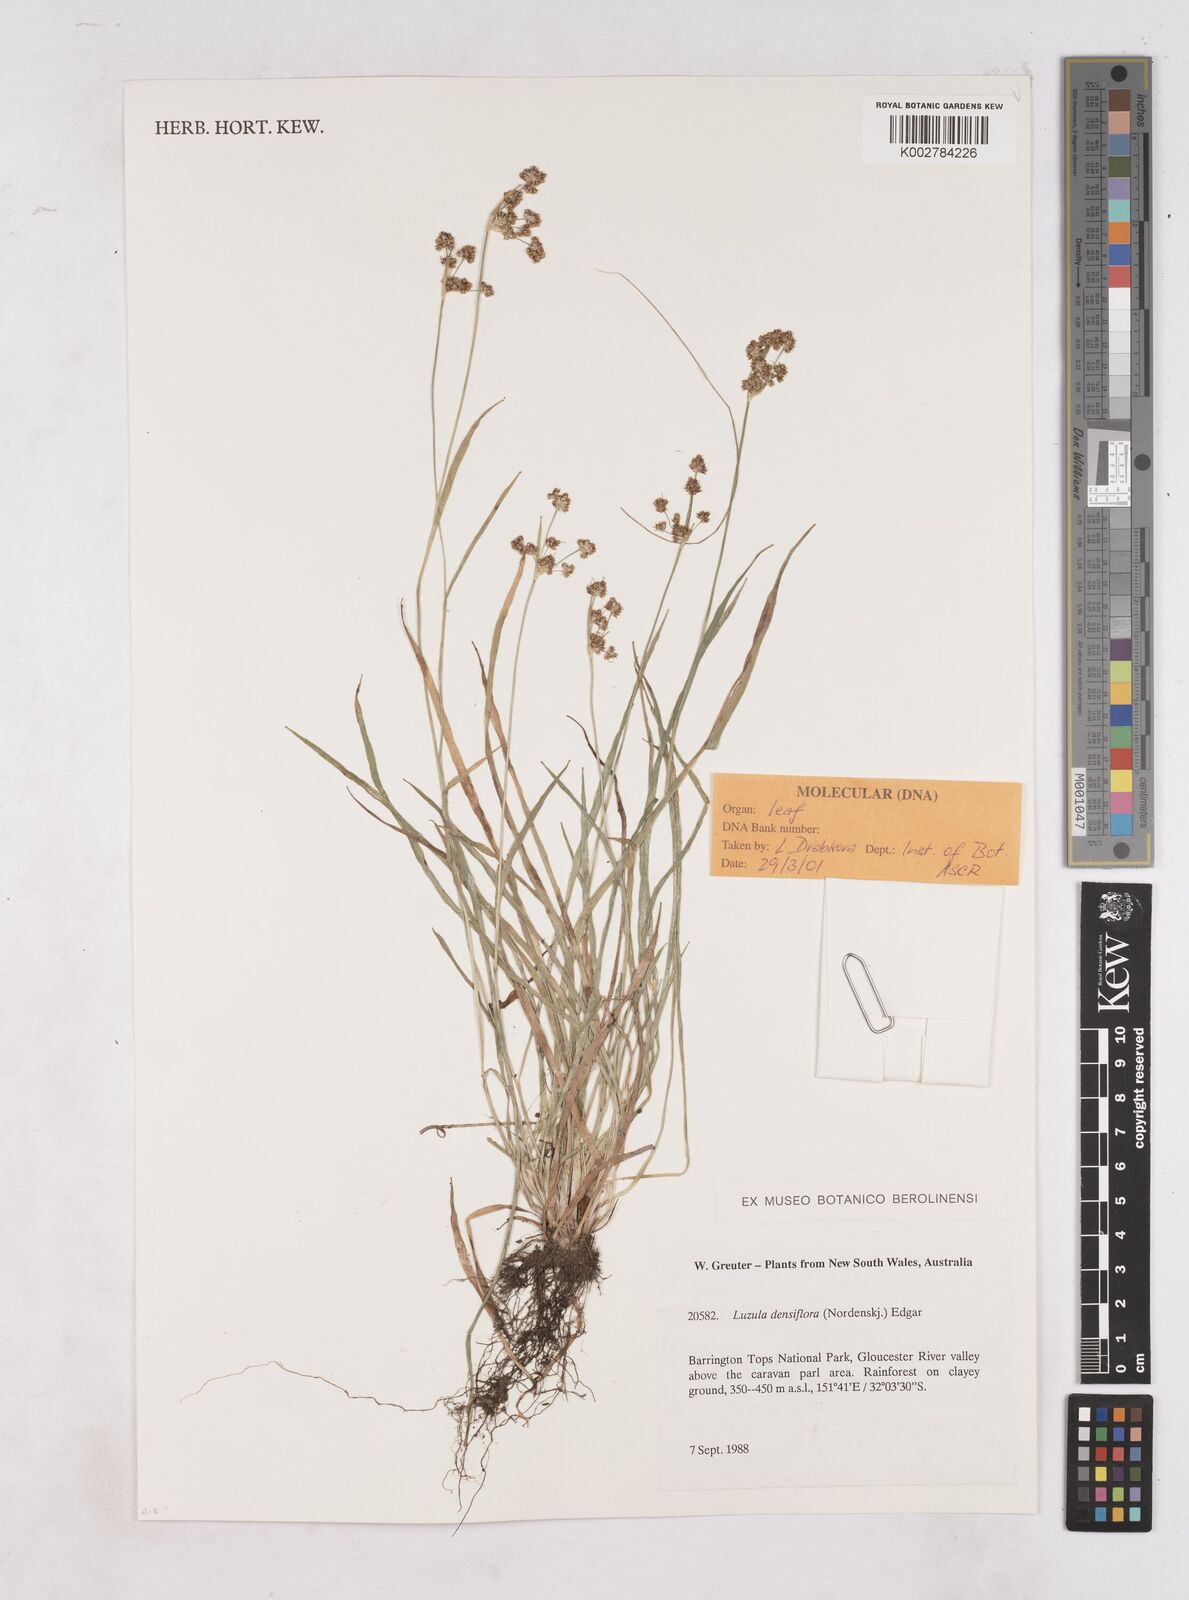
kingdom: Plantae
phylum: Tracheophyta
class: Liliopsida
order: Poales
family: Juncaceae
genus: Luzula
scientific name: Luzula densiflora
